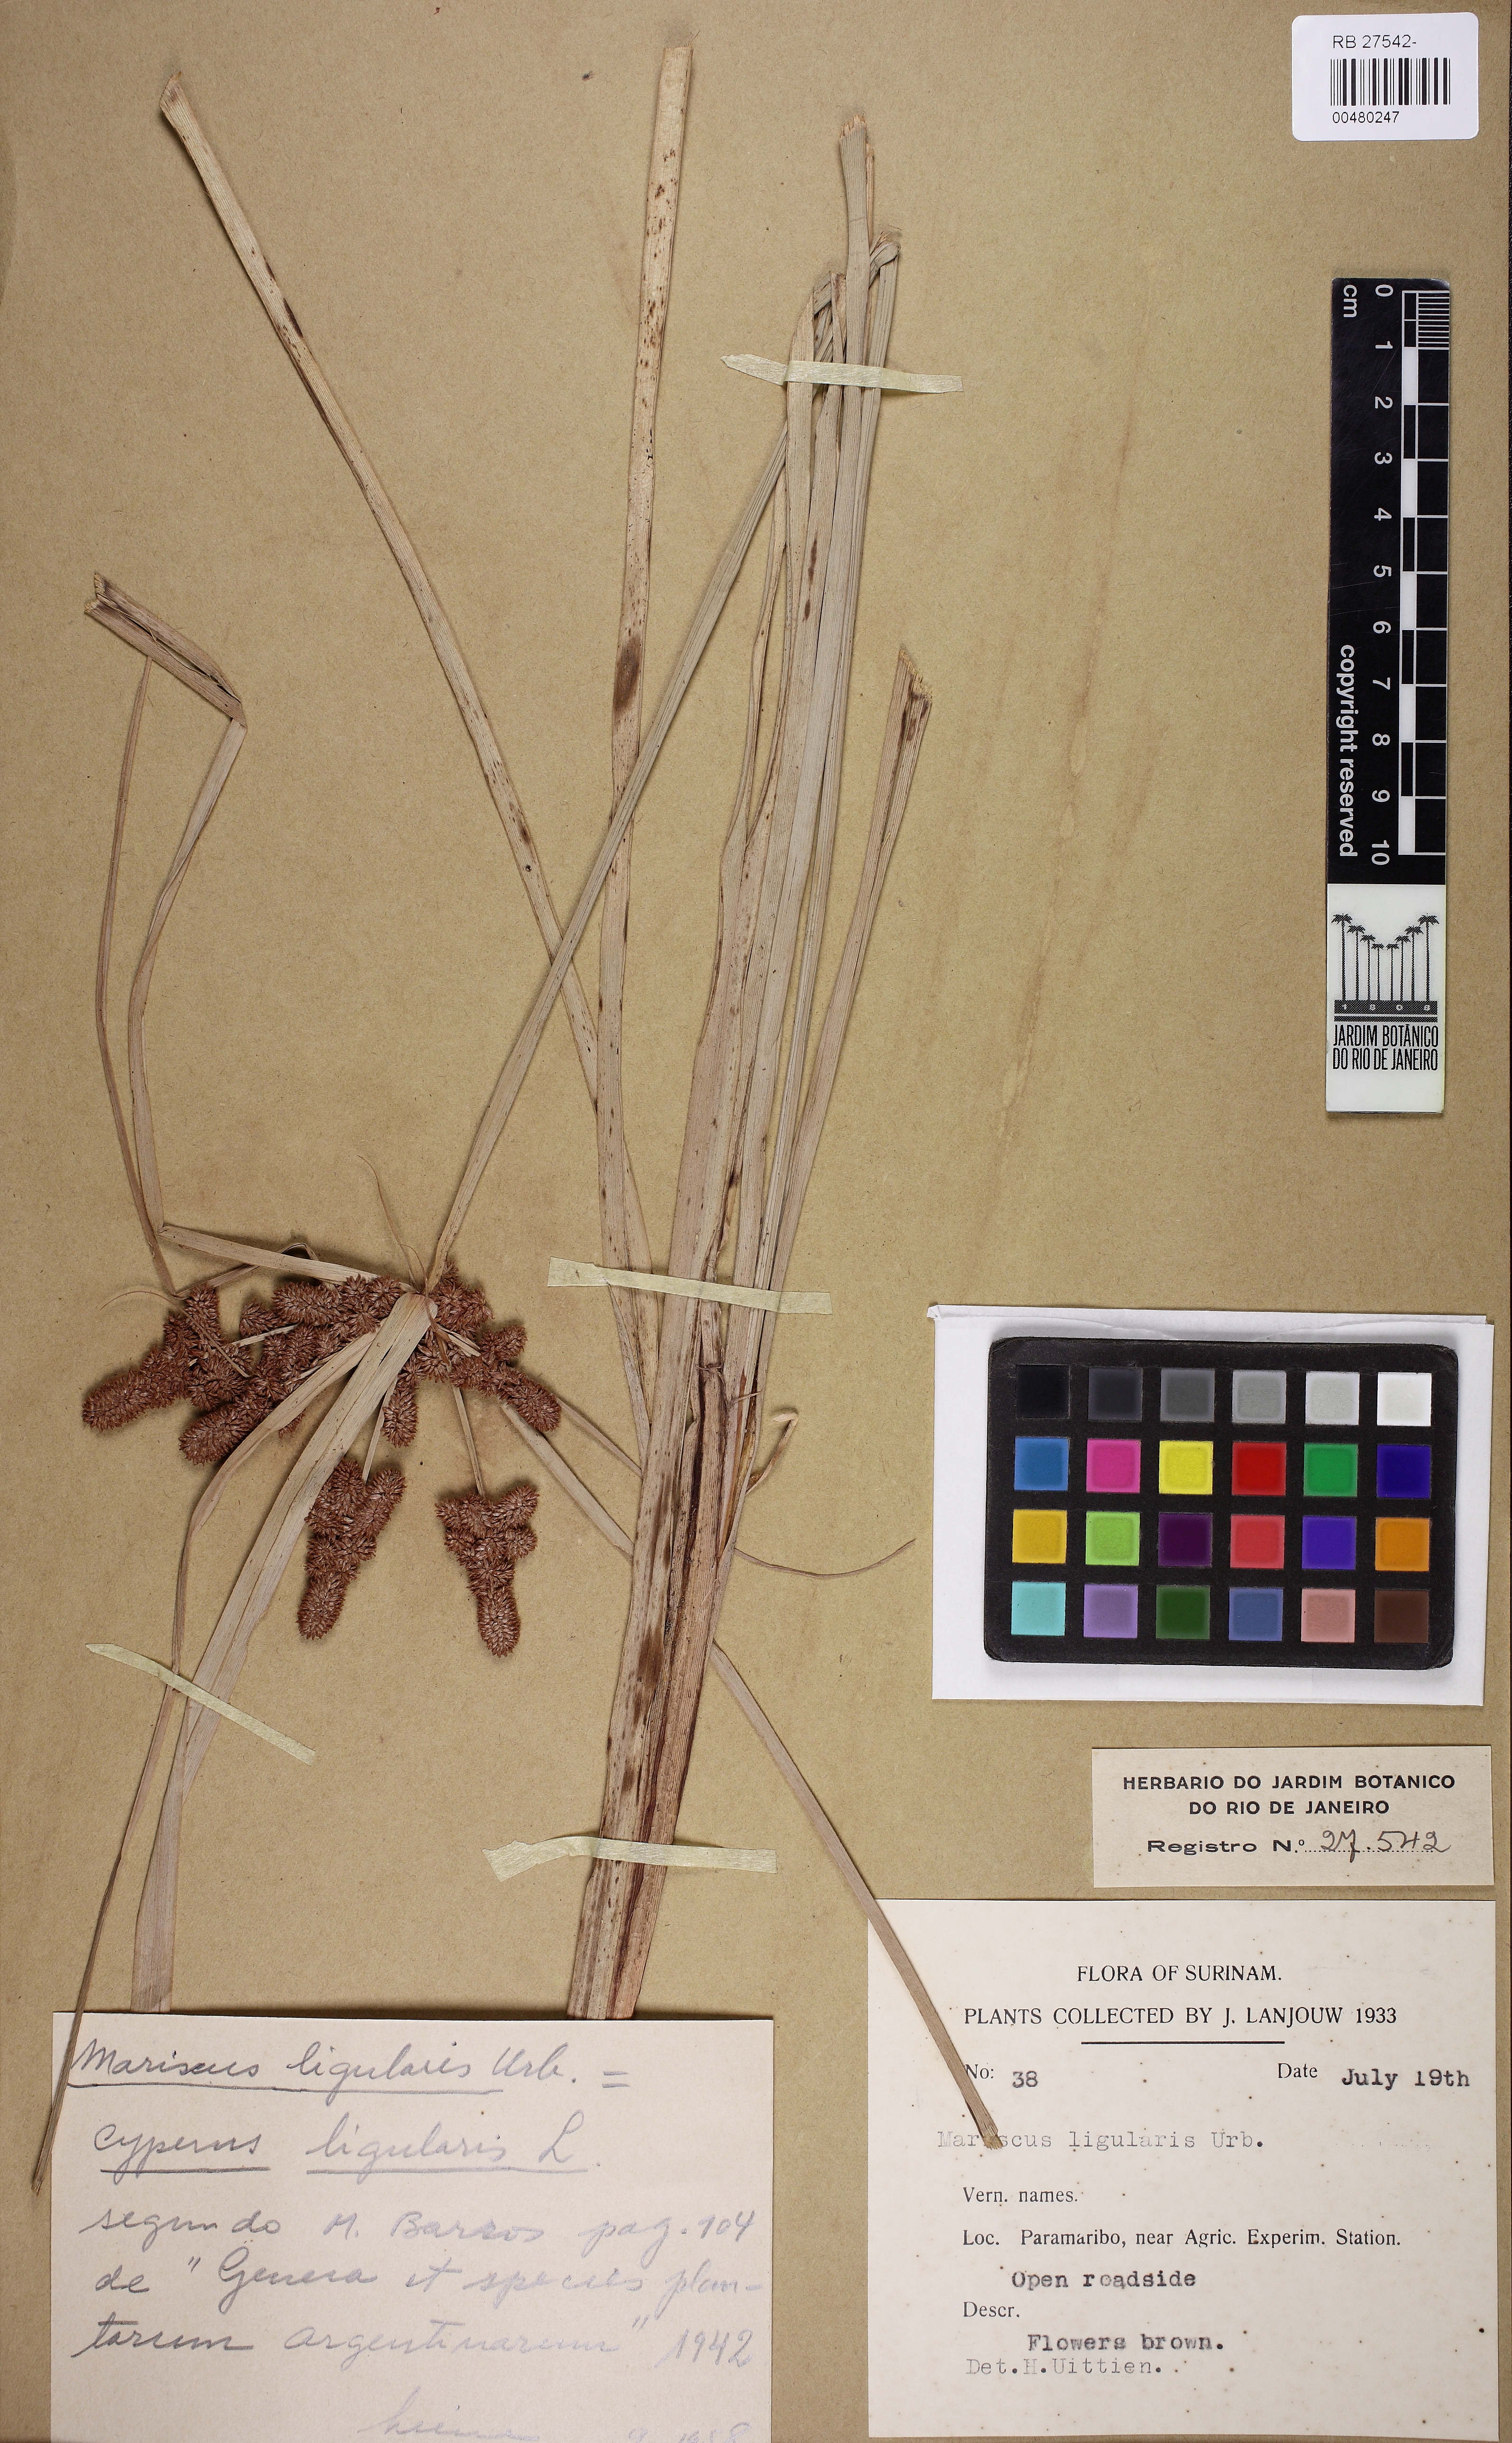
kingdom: Plantae
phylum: Tracheophyta
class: Liliopsida
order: Poales
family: Cyperaceae
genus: Cyperus
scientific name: Cyperus ligularis
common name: Swamp flat sedge
